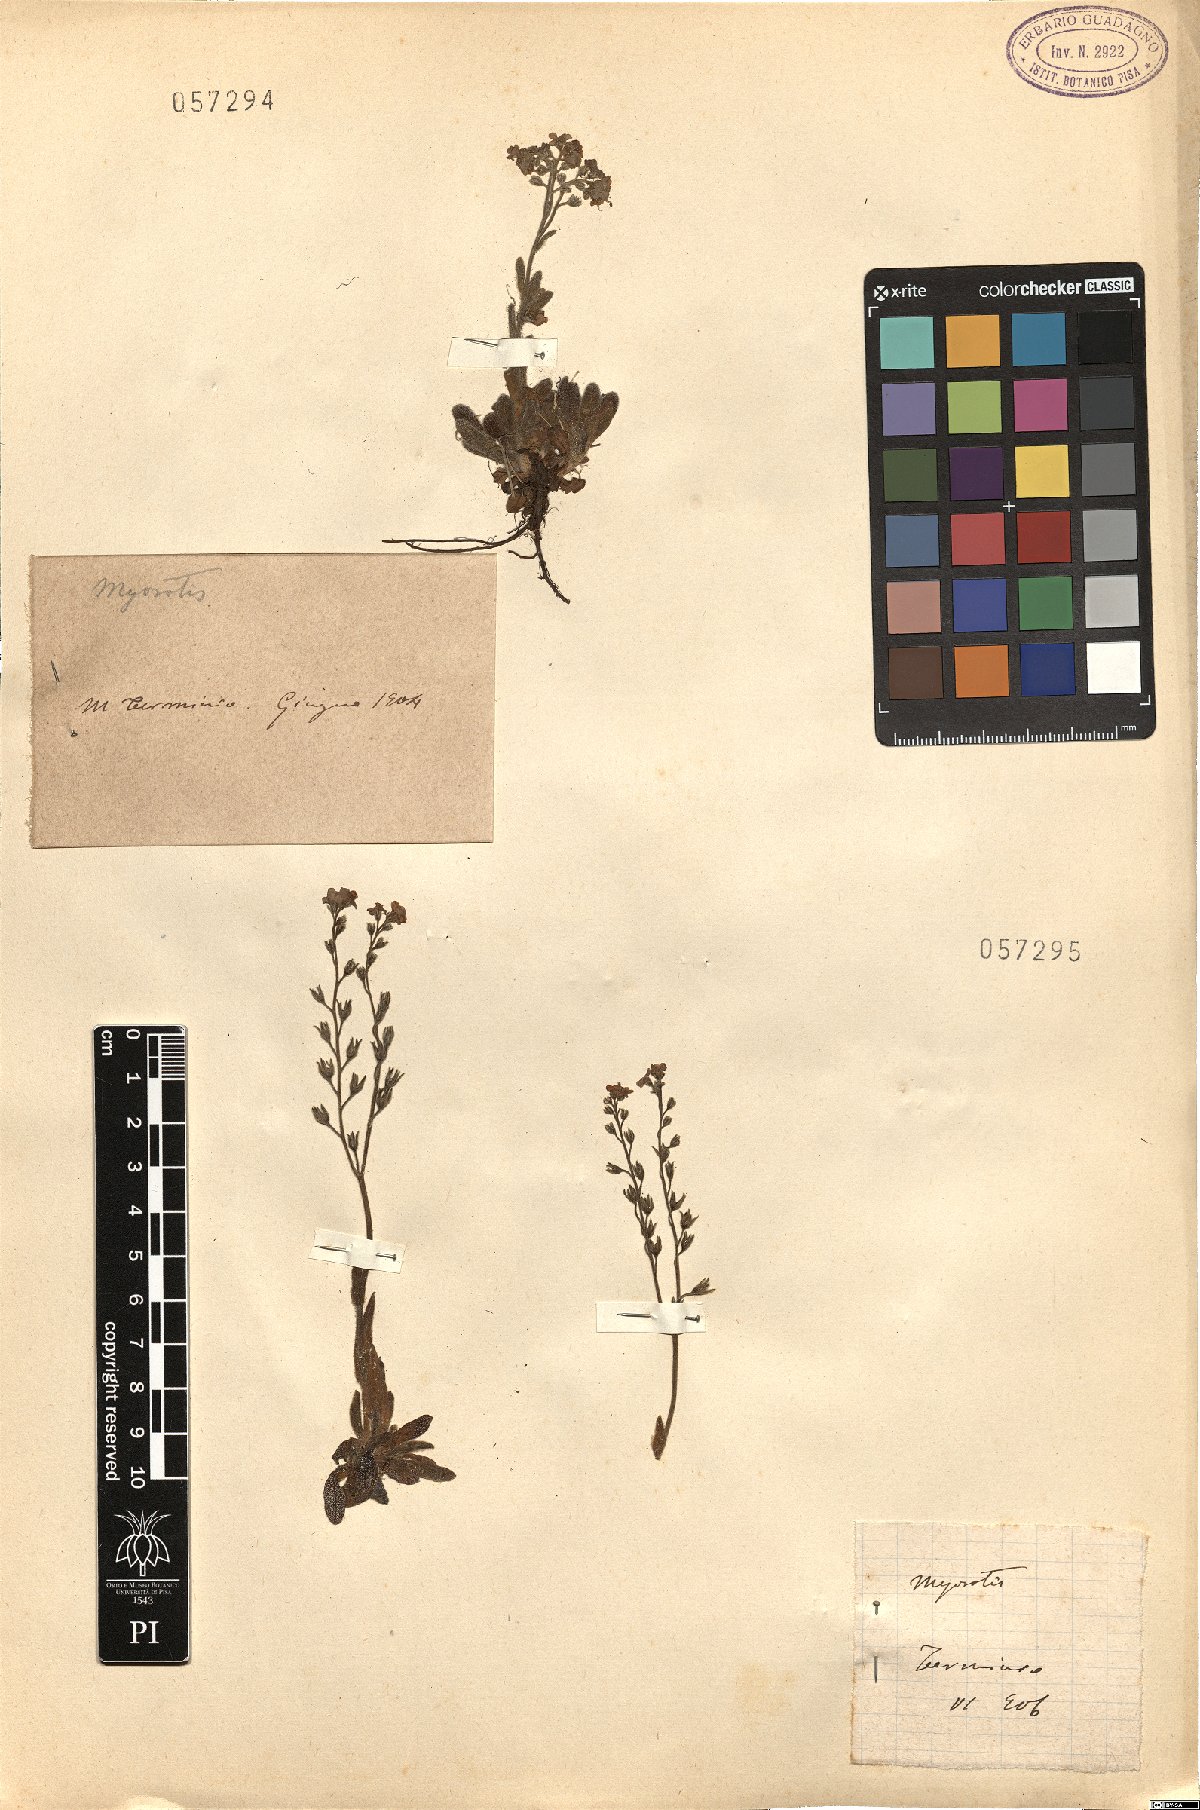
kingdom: Plantae
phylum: Tracheophyta
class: Magnoliopsida
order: Boraginales
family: Boraginaceae
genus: Myosotis
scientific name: Myosotis
